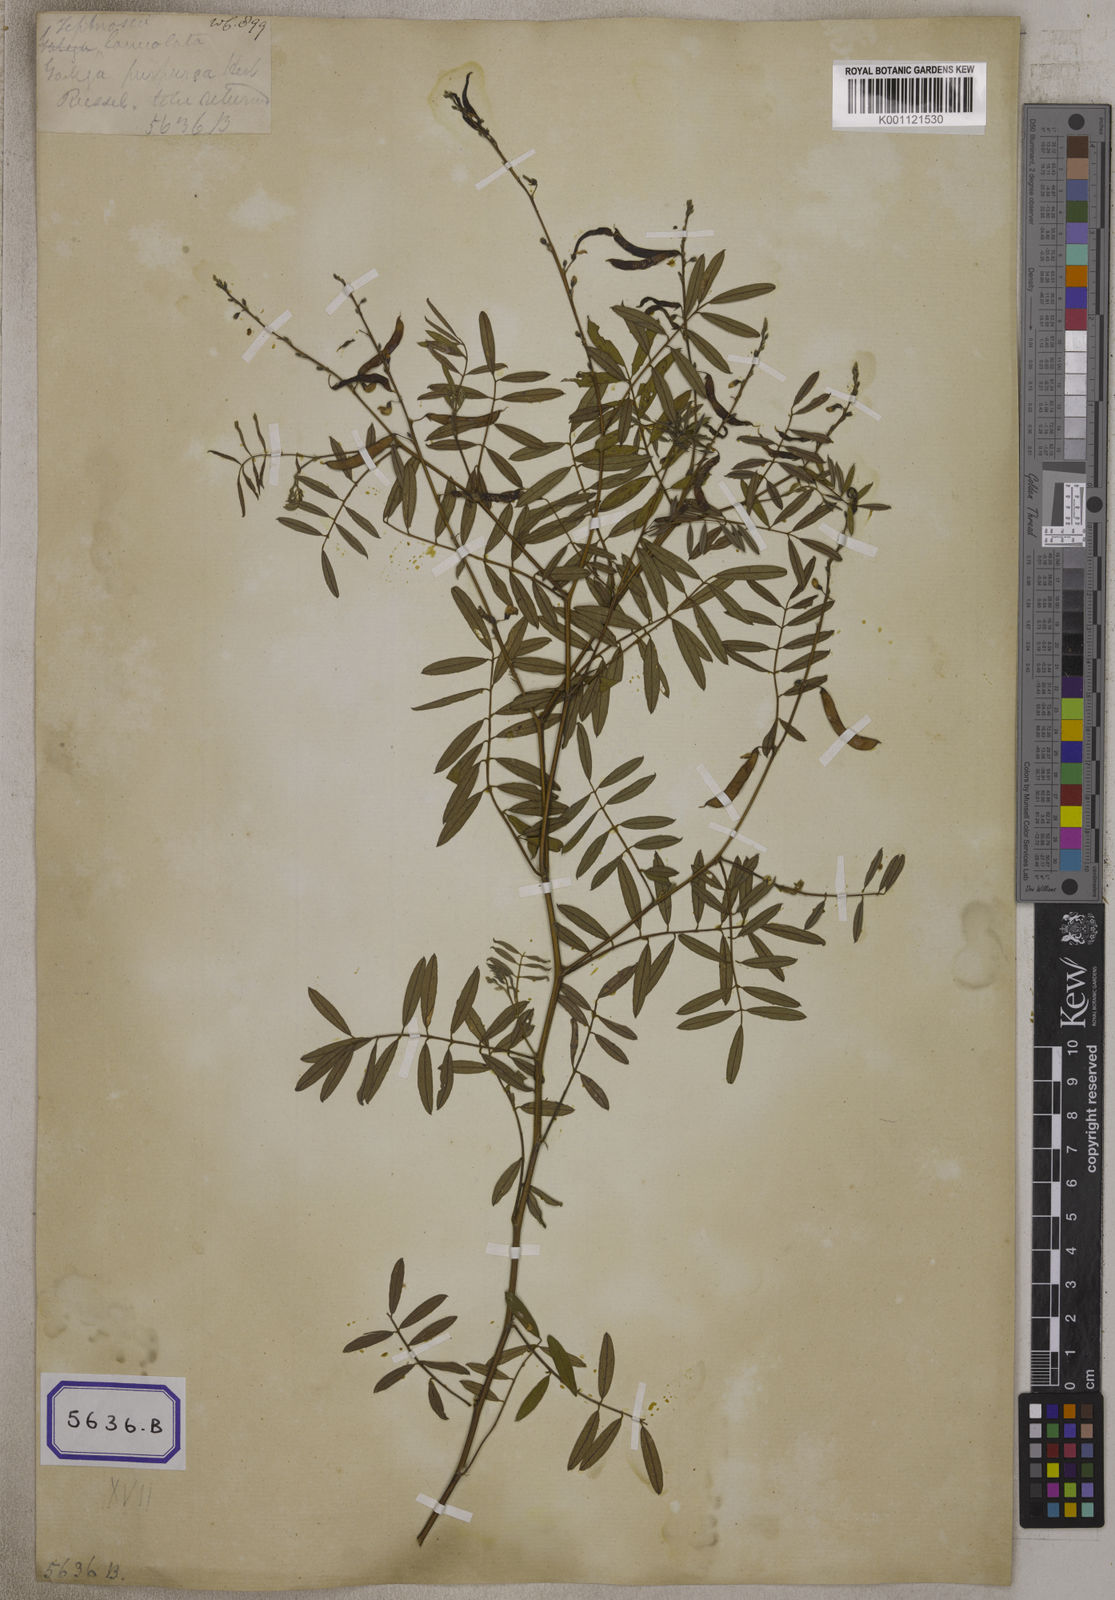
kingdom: Plantae
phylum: Tracheophyta
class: Magnoliopsida
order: Fabales
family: Fabaceae
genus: Tephrosia
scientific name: Tephrosia
